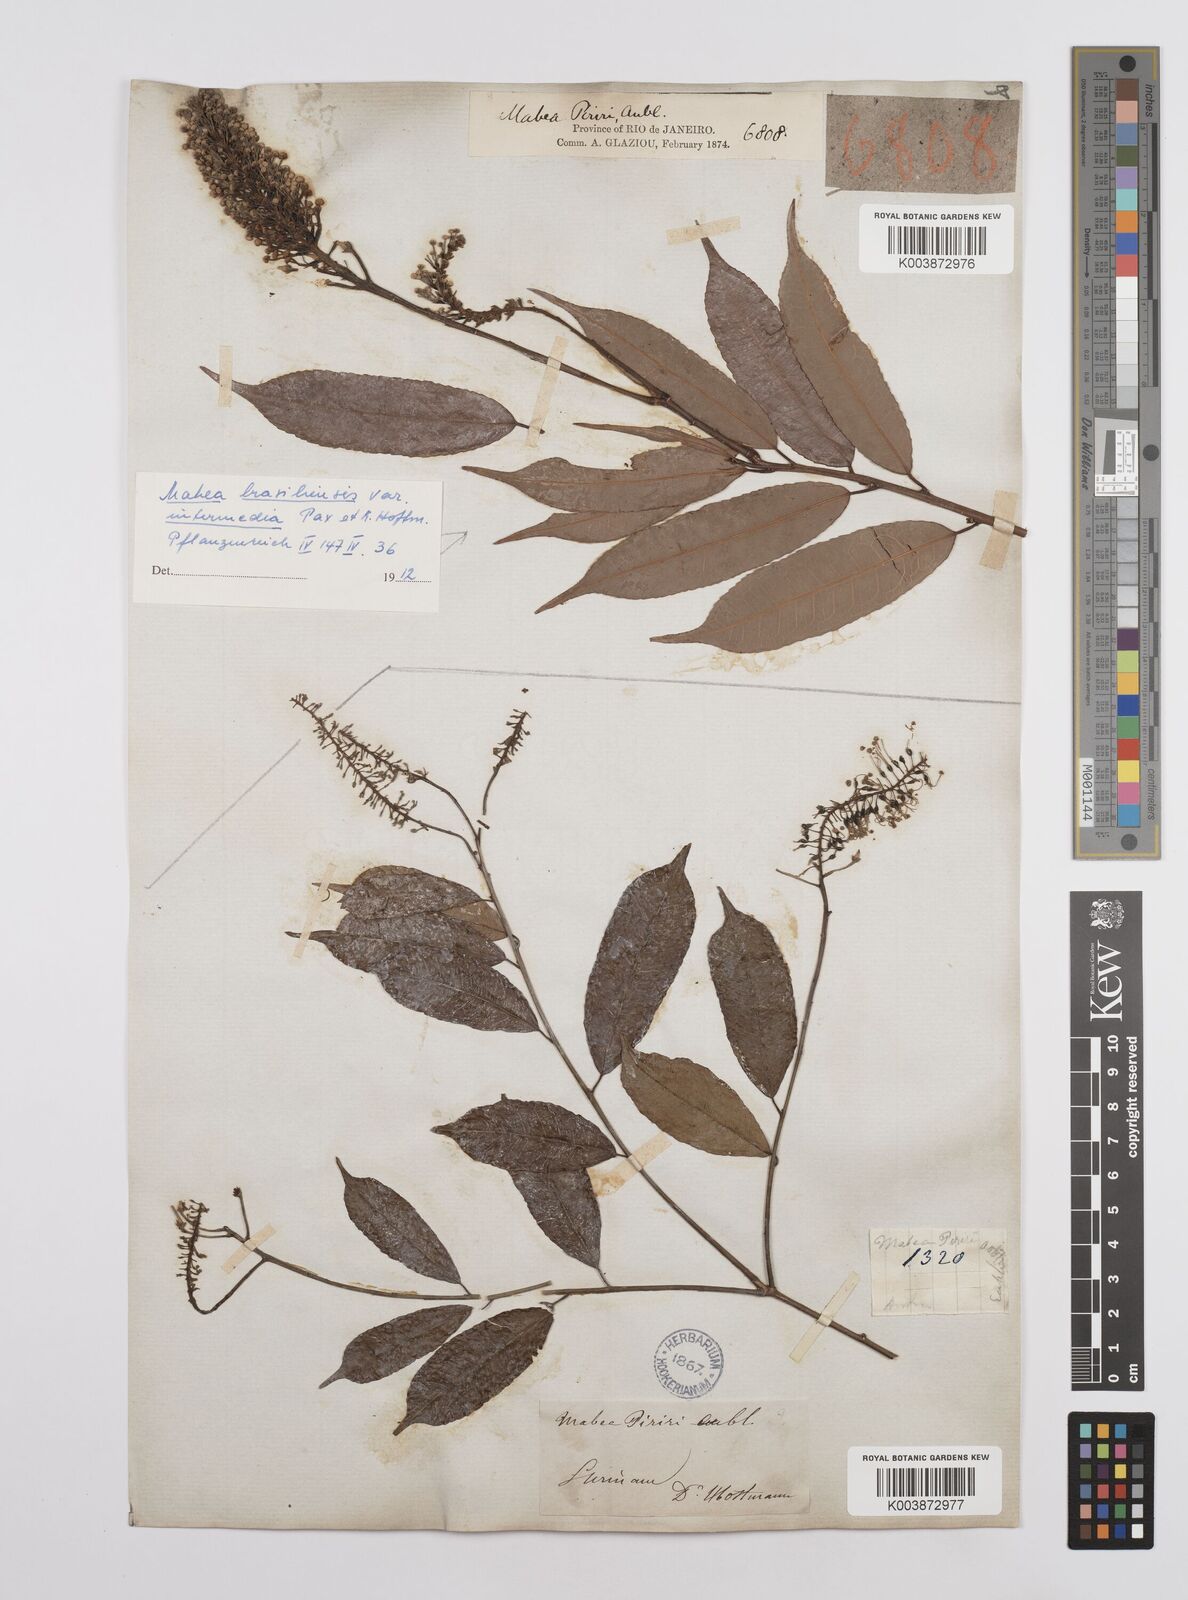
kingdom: Plantae
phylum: Tracheophyta
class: Magnoliopsida
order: Malpighiales
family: Euphorbiaceae
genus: Mabea
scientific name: Mabea piriri
